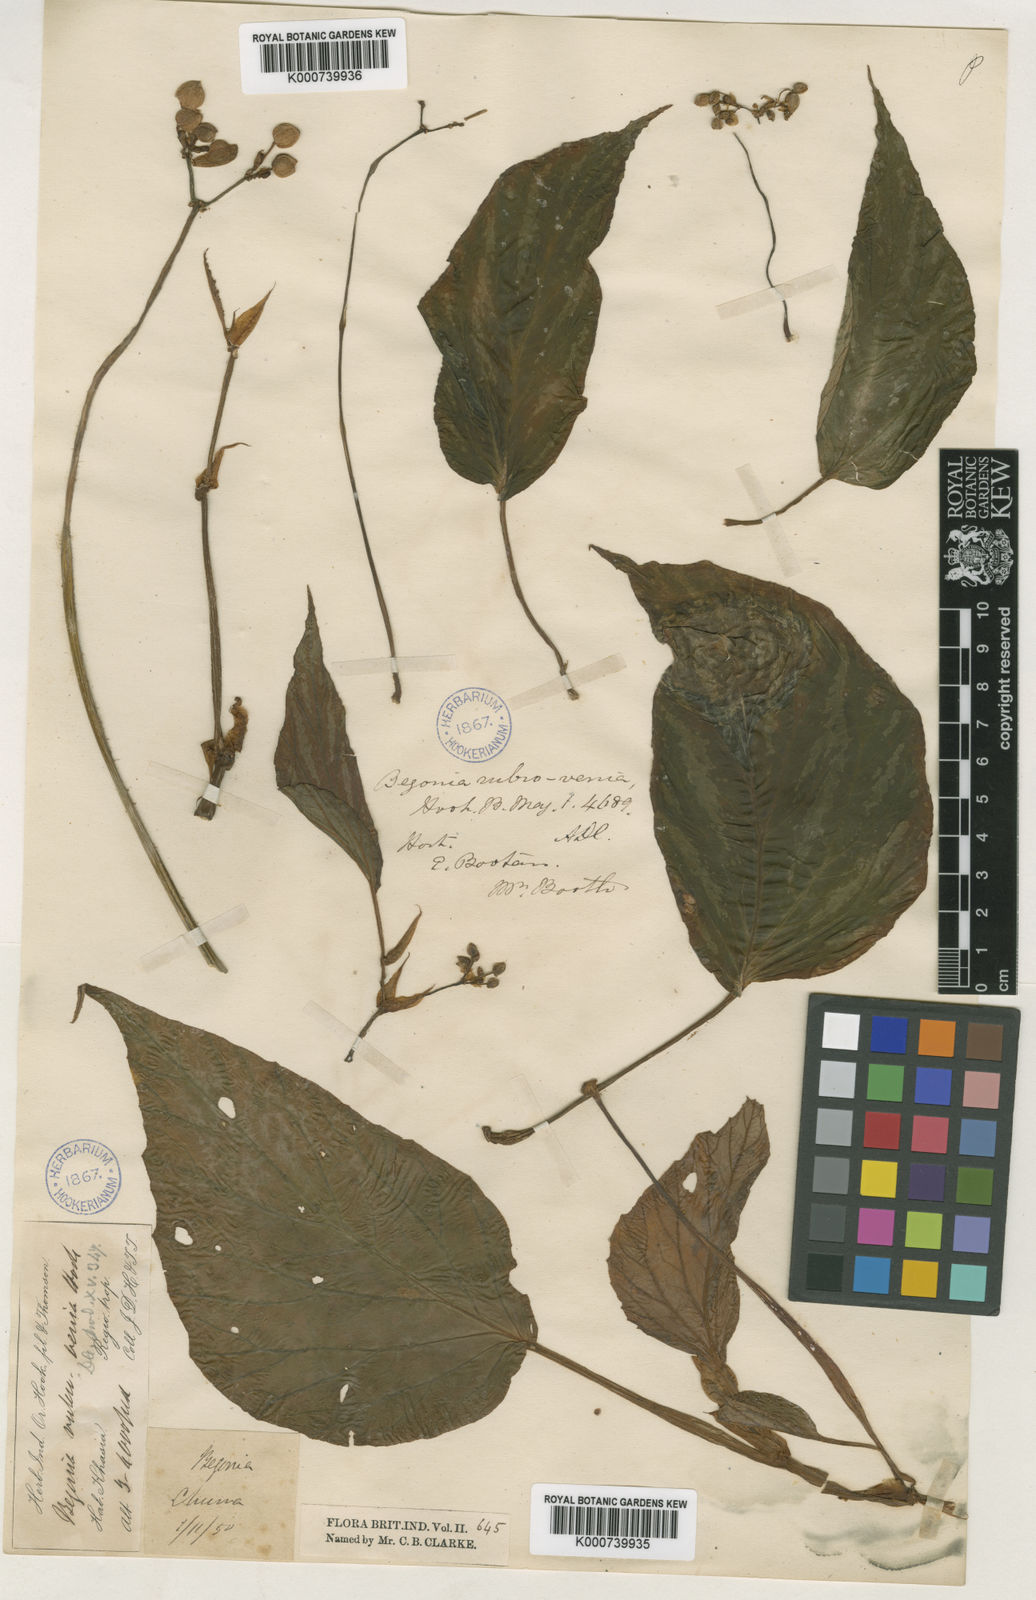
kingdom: Plantae
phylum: Tracheophyta
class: Magnoliopsida
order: Cucurbitales
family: Begoniaceae
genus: Begonia
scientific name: Begonia hatacoa
